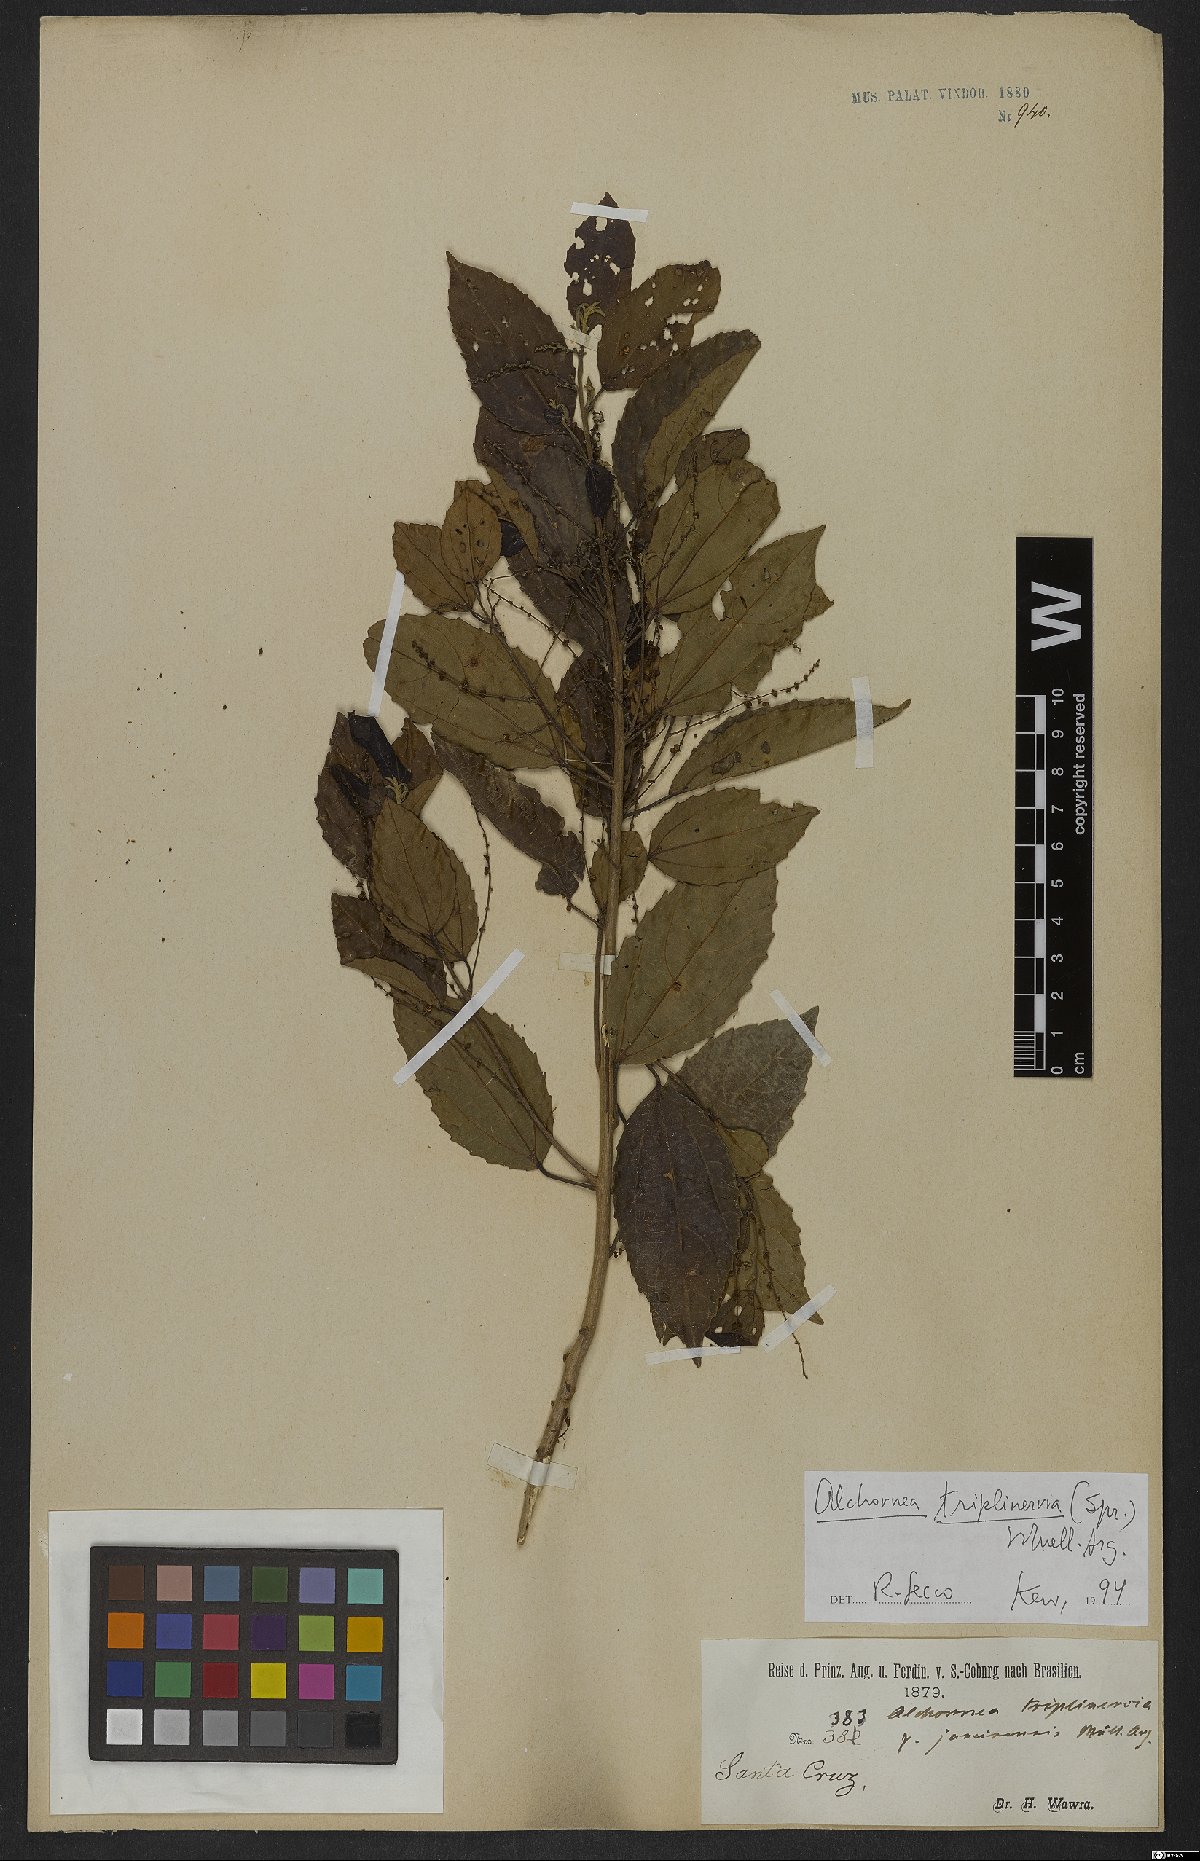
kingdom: Plantae
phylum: Tracheophyta
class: Magnoliopsida
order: Malpighiales
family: Euphorbiaceae
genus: Alchornea
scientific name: Alchornea triplinervia
